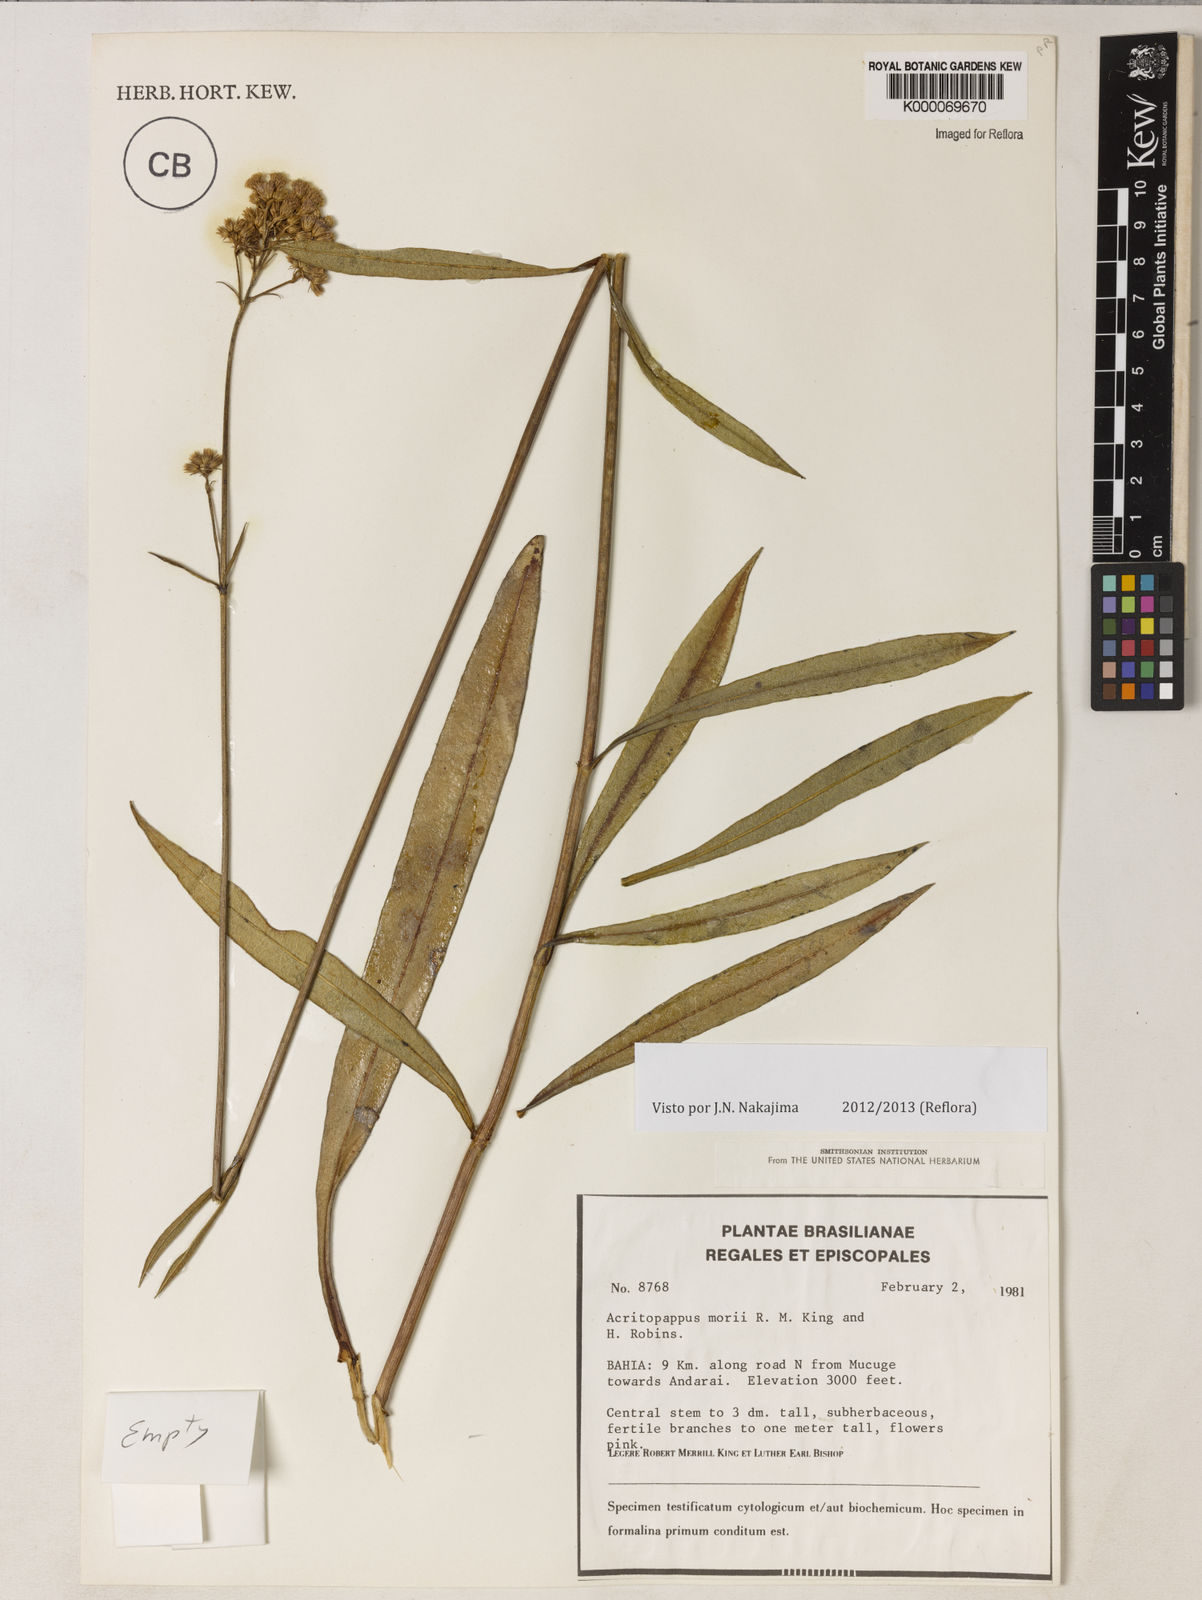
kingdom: Plantae
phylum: Tracheophyta
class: Magnoliopsida
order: Asterales
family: Asteraceae
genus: Acritopappus
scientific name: Acritopappus morii
